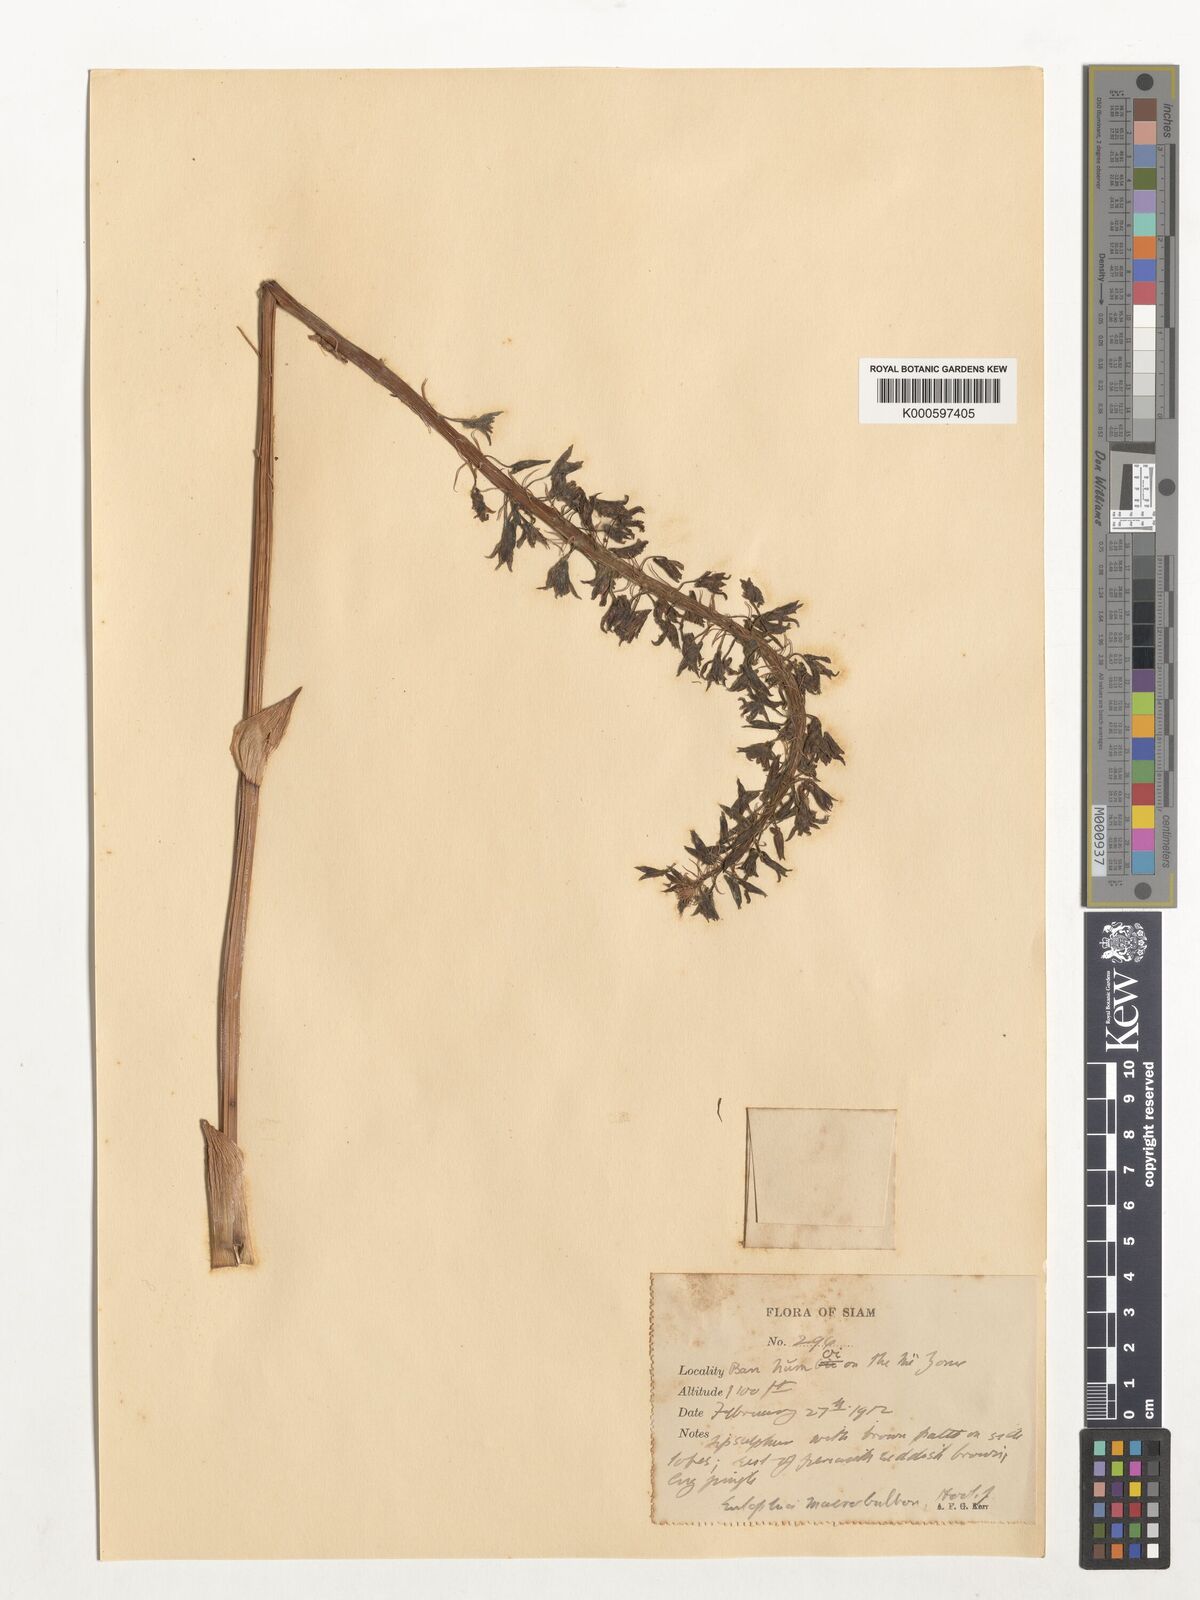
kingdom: Plantae
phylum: Tracheophyta
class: Liliopsida
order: Asparagales
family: Orchidaceae
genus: Eulophia
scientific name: Eulophia macrobulbon
